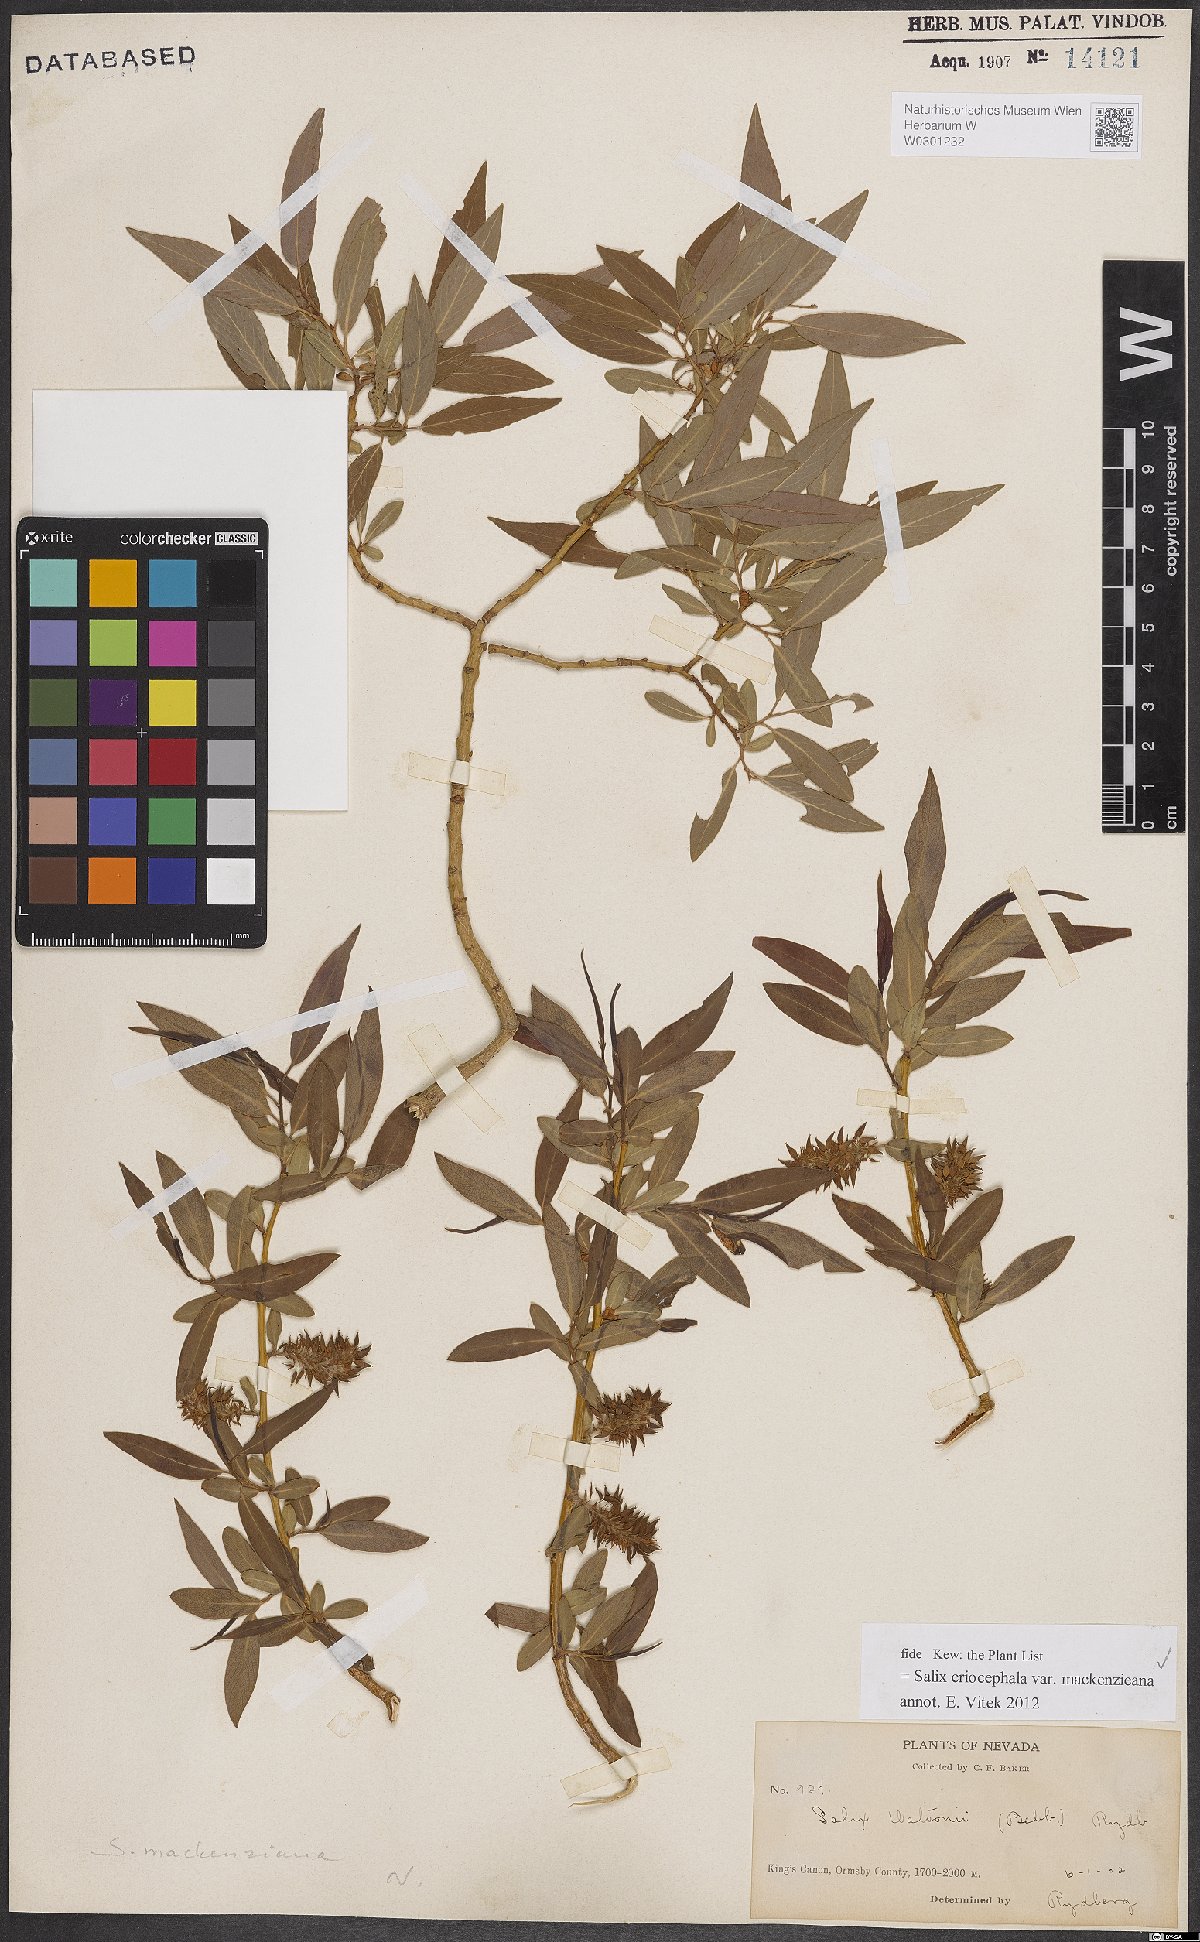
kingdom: Plantae
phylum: Tracheophyta
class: Magnoliopsida
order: Malpighiales
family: Salicaceae
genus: Salix
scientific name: Salix prolixa
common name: Mackenzie's willow
